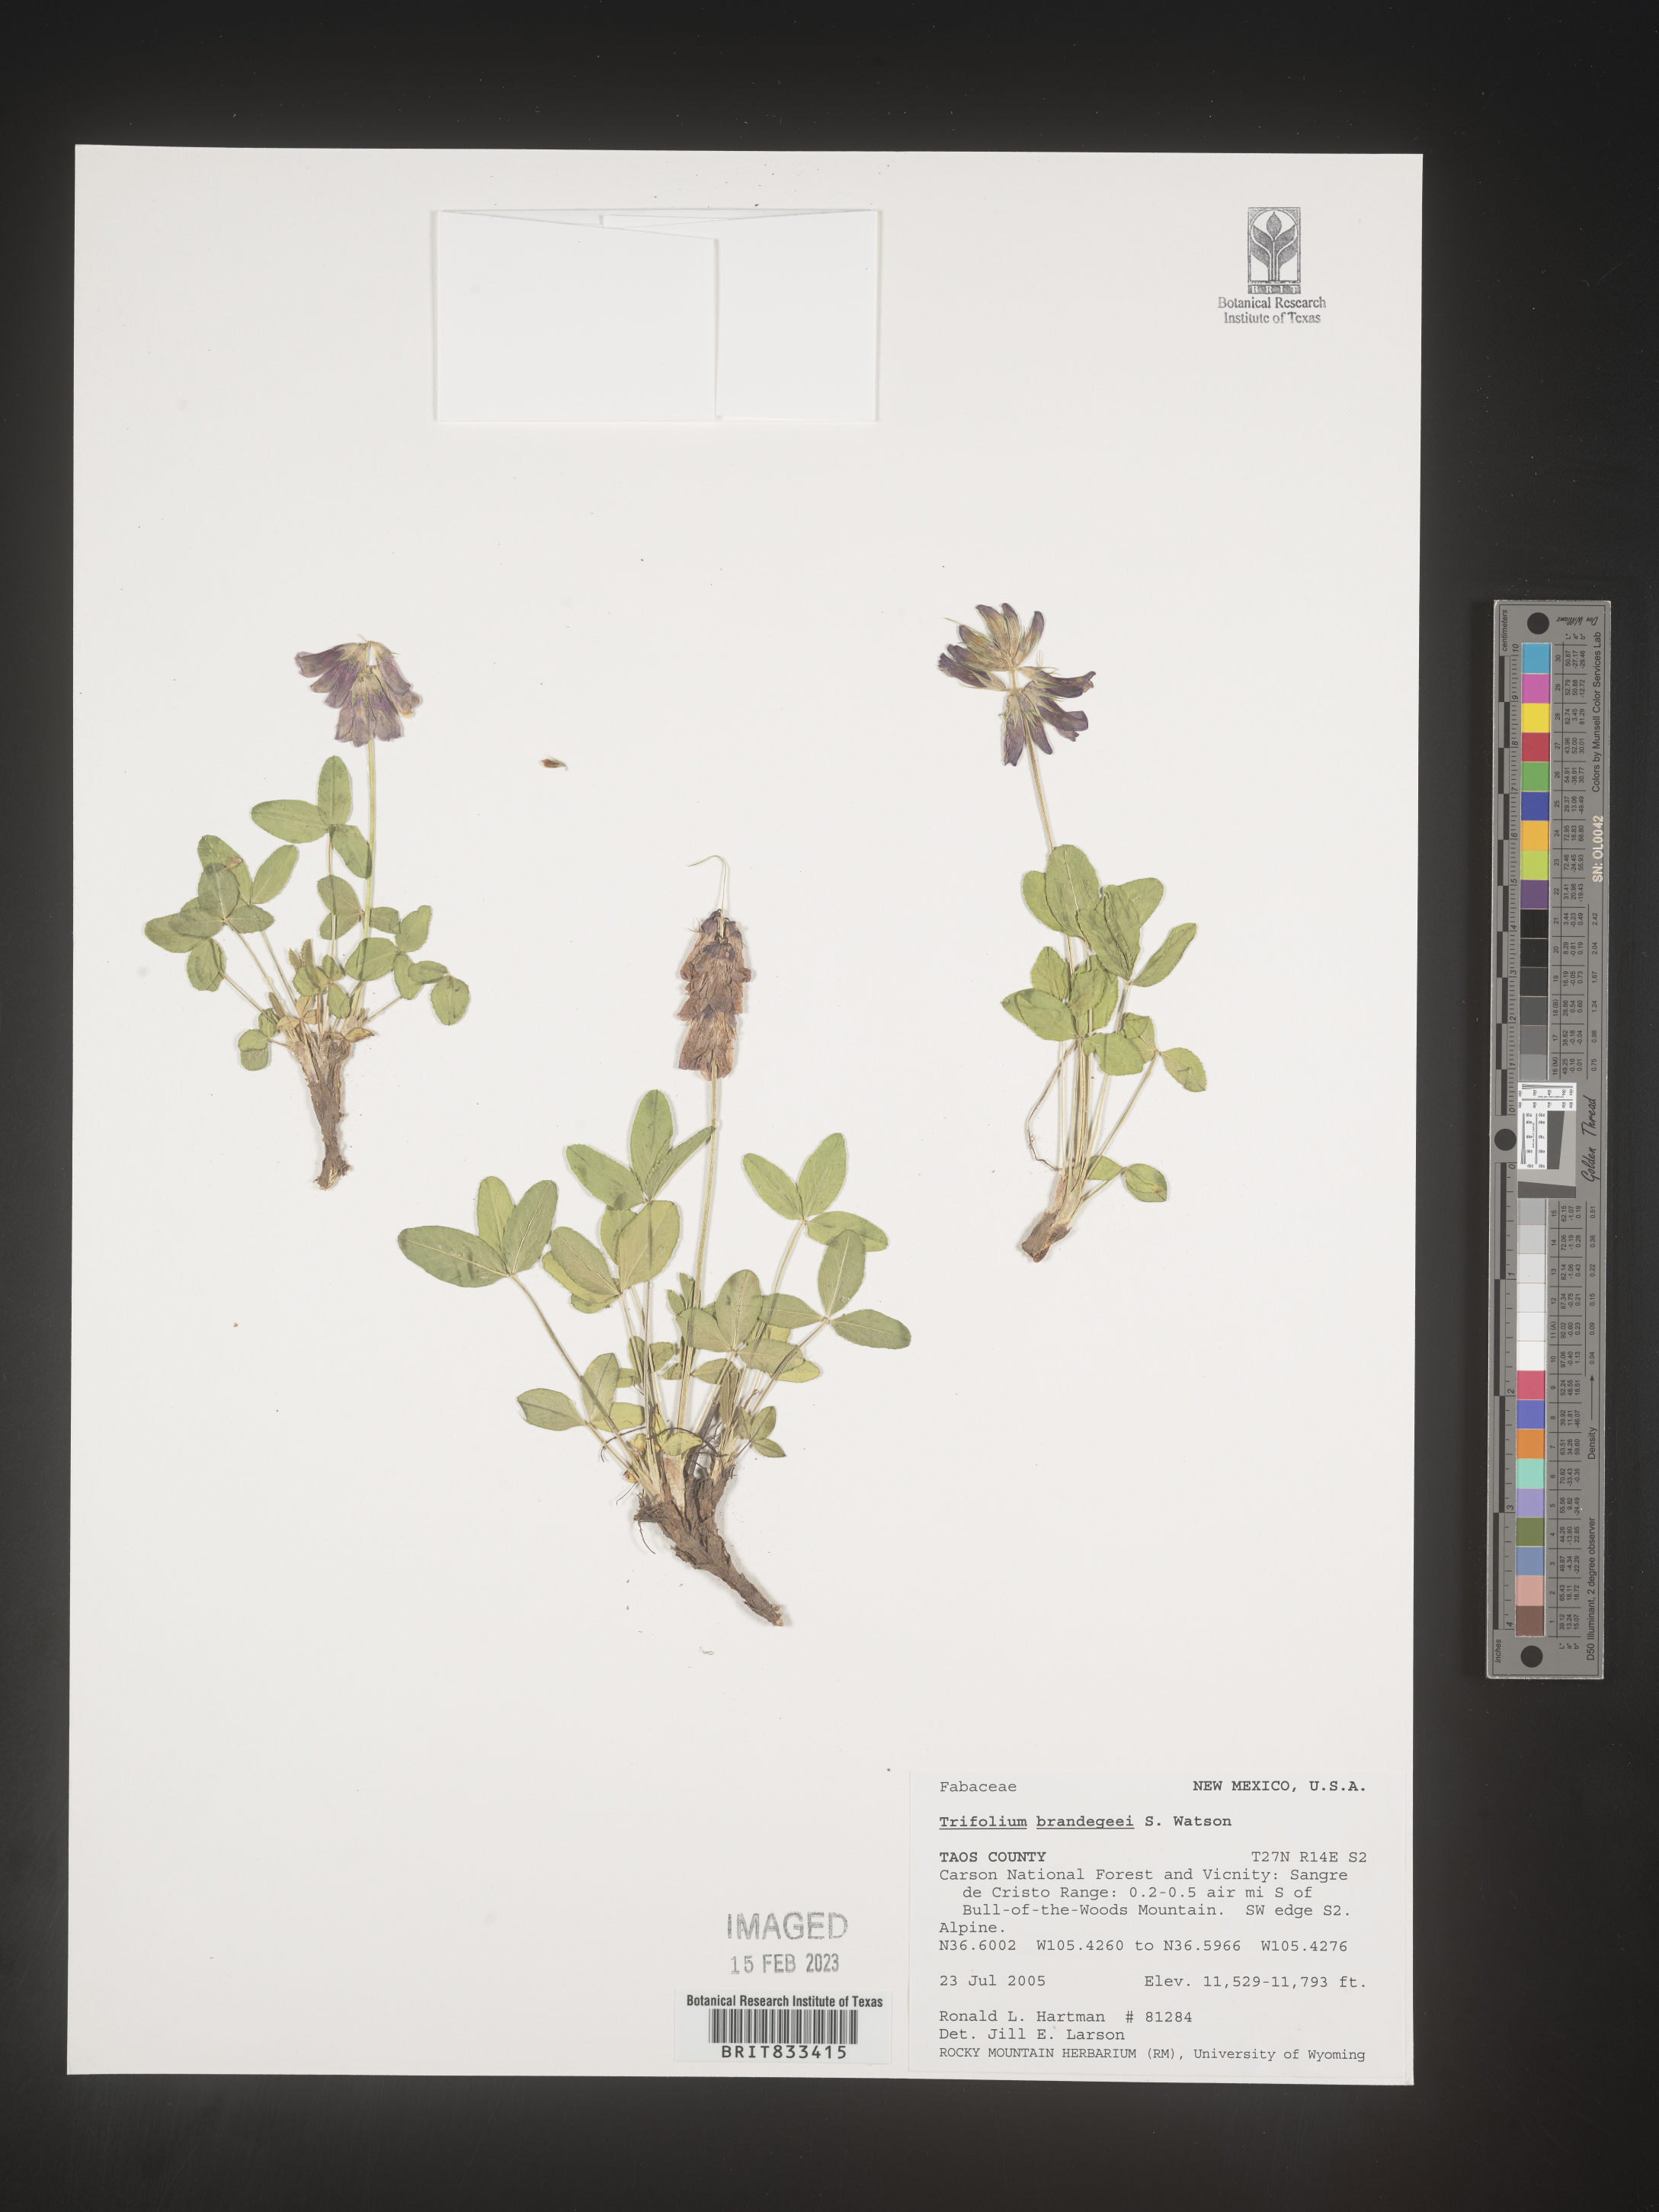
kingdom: Plantae
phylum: Tracheophyta
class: Magnoliopsida
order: Fabales
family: Fabaceae
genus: Trifolium
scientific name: Trifolium
